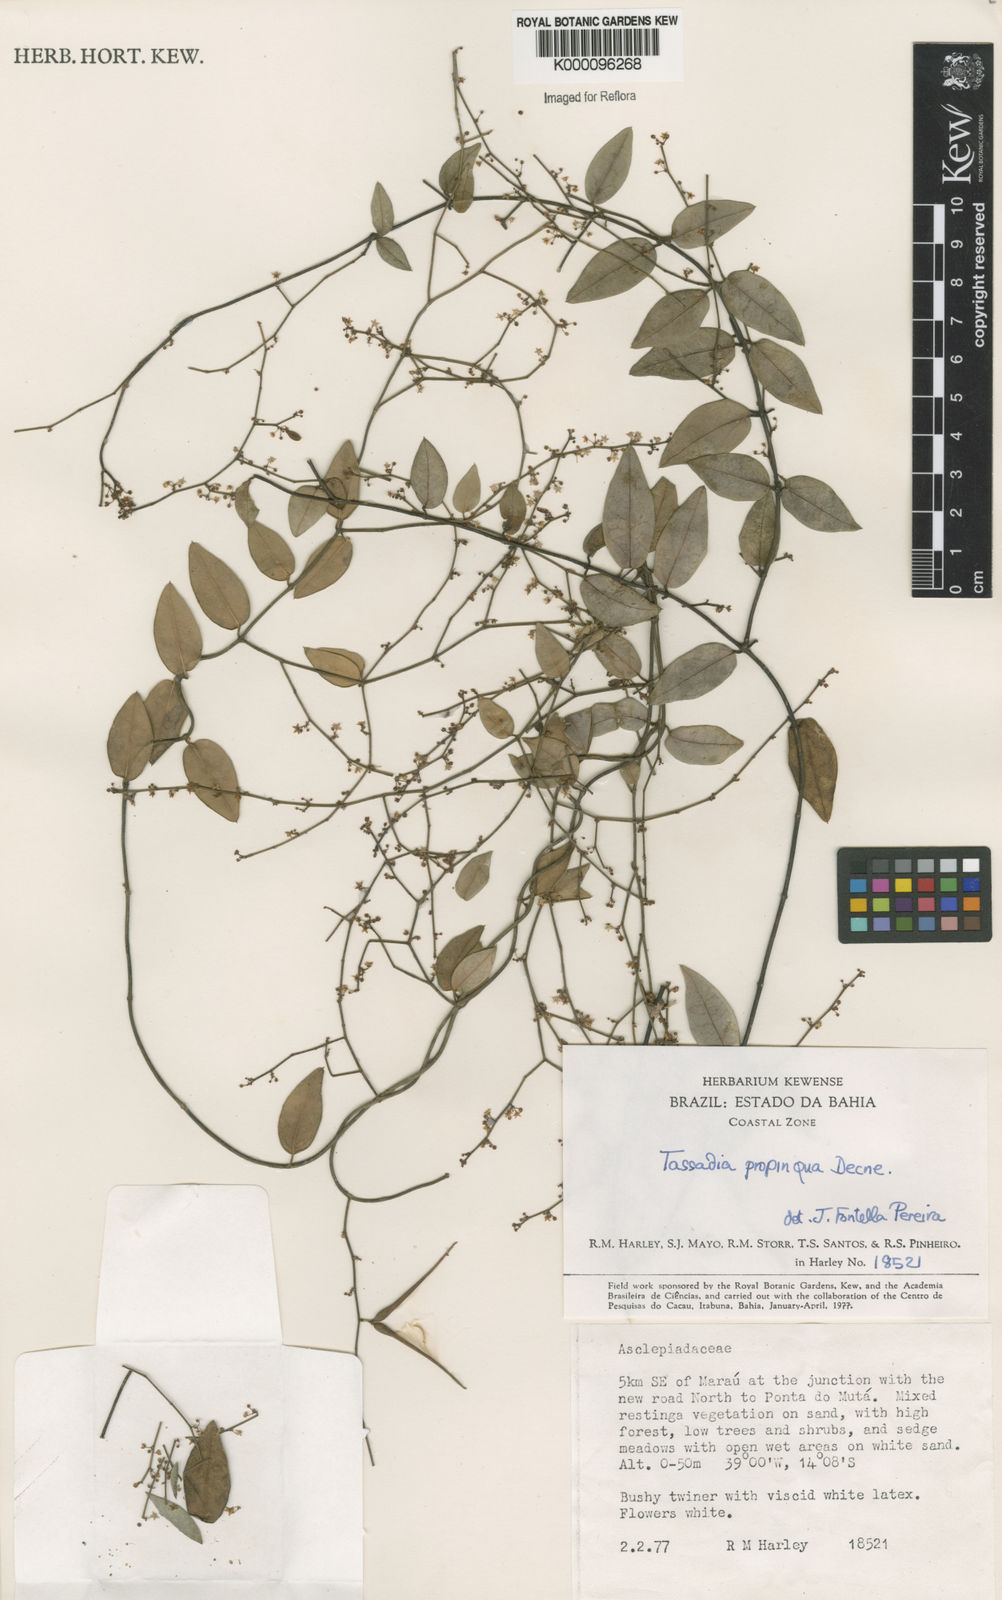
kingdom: Plantae
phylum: Tracheophyta
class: Magnoliopsida
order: Gentianales
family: Apocynaceae
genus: Tassadia
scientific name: Tassadia propinqua
